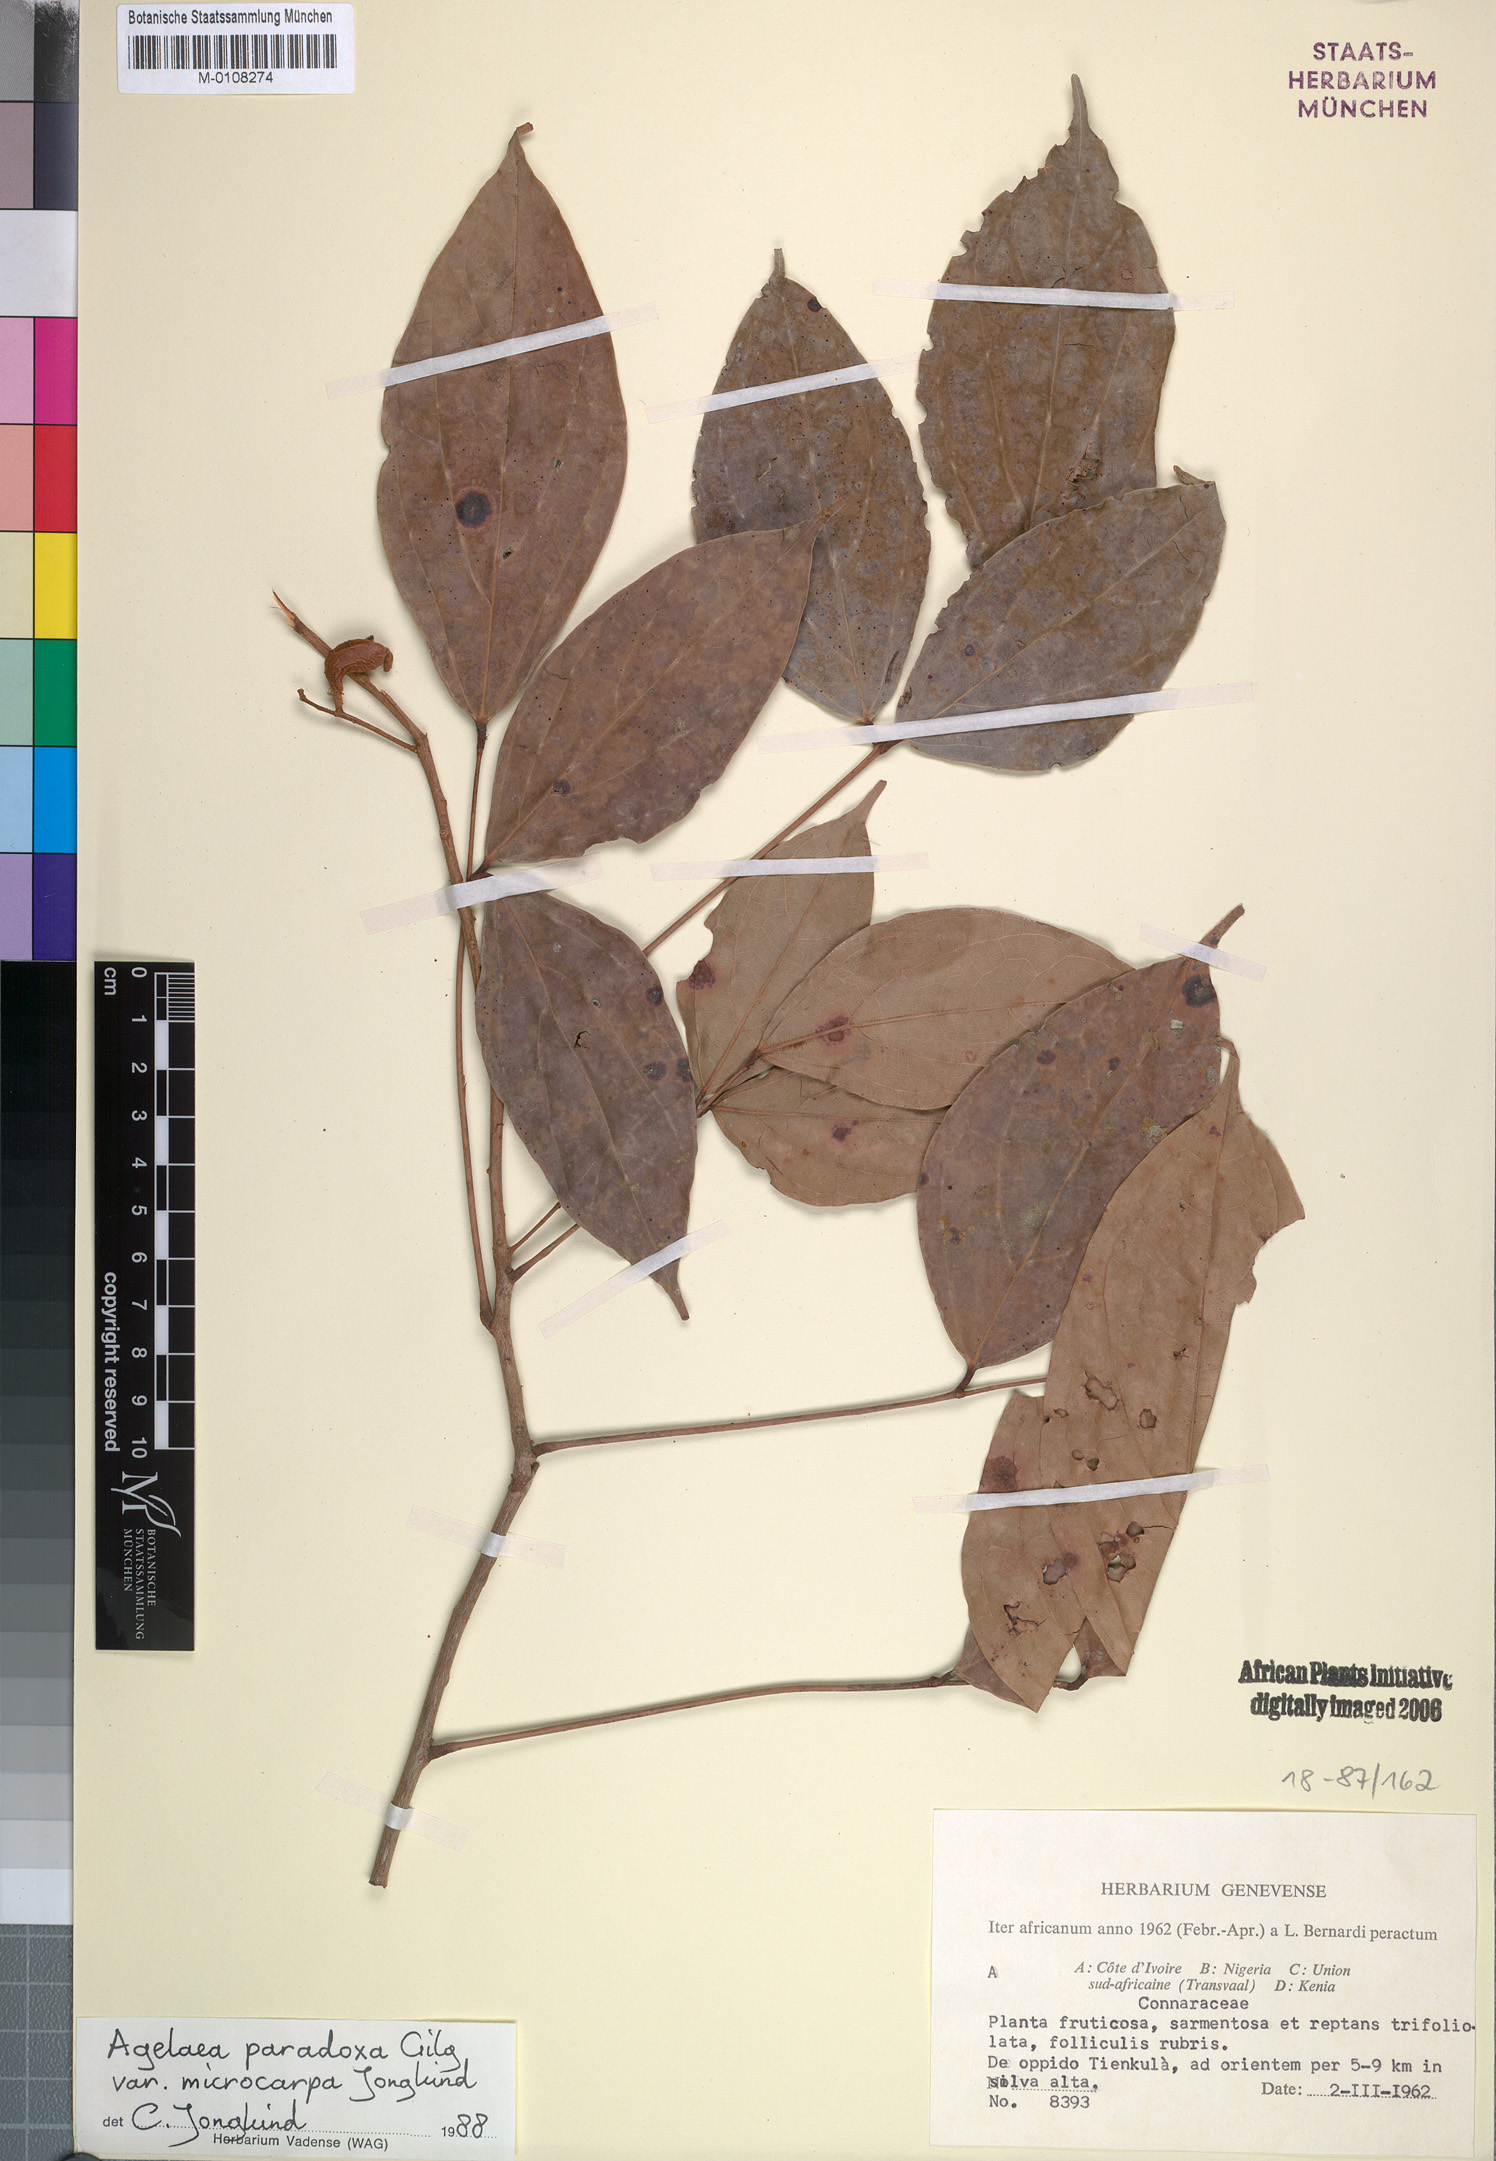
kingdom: Plantae
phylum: Tracheophyta
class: Magnoliopsida
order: Oxalidales
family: Connaraceae
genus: Castanola
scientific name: Castanola paradoxa
